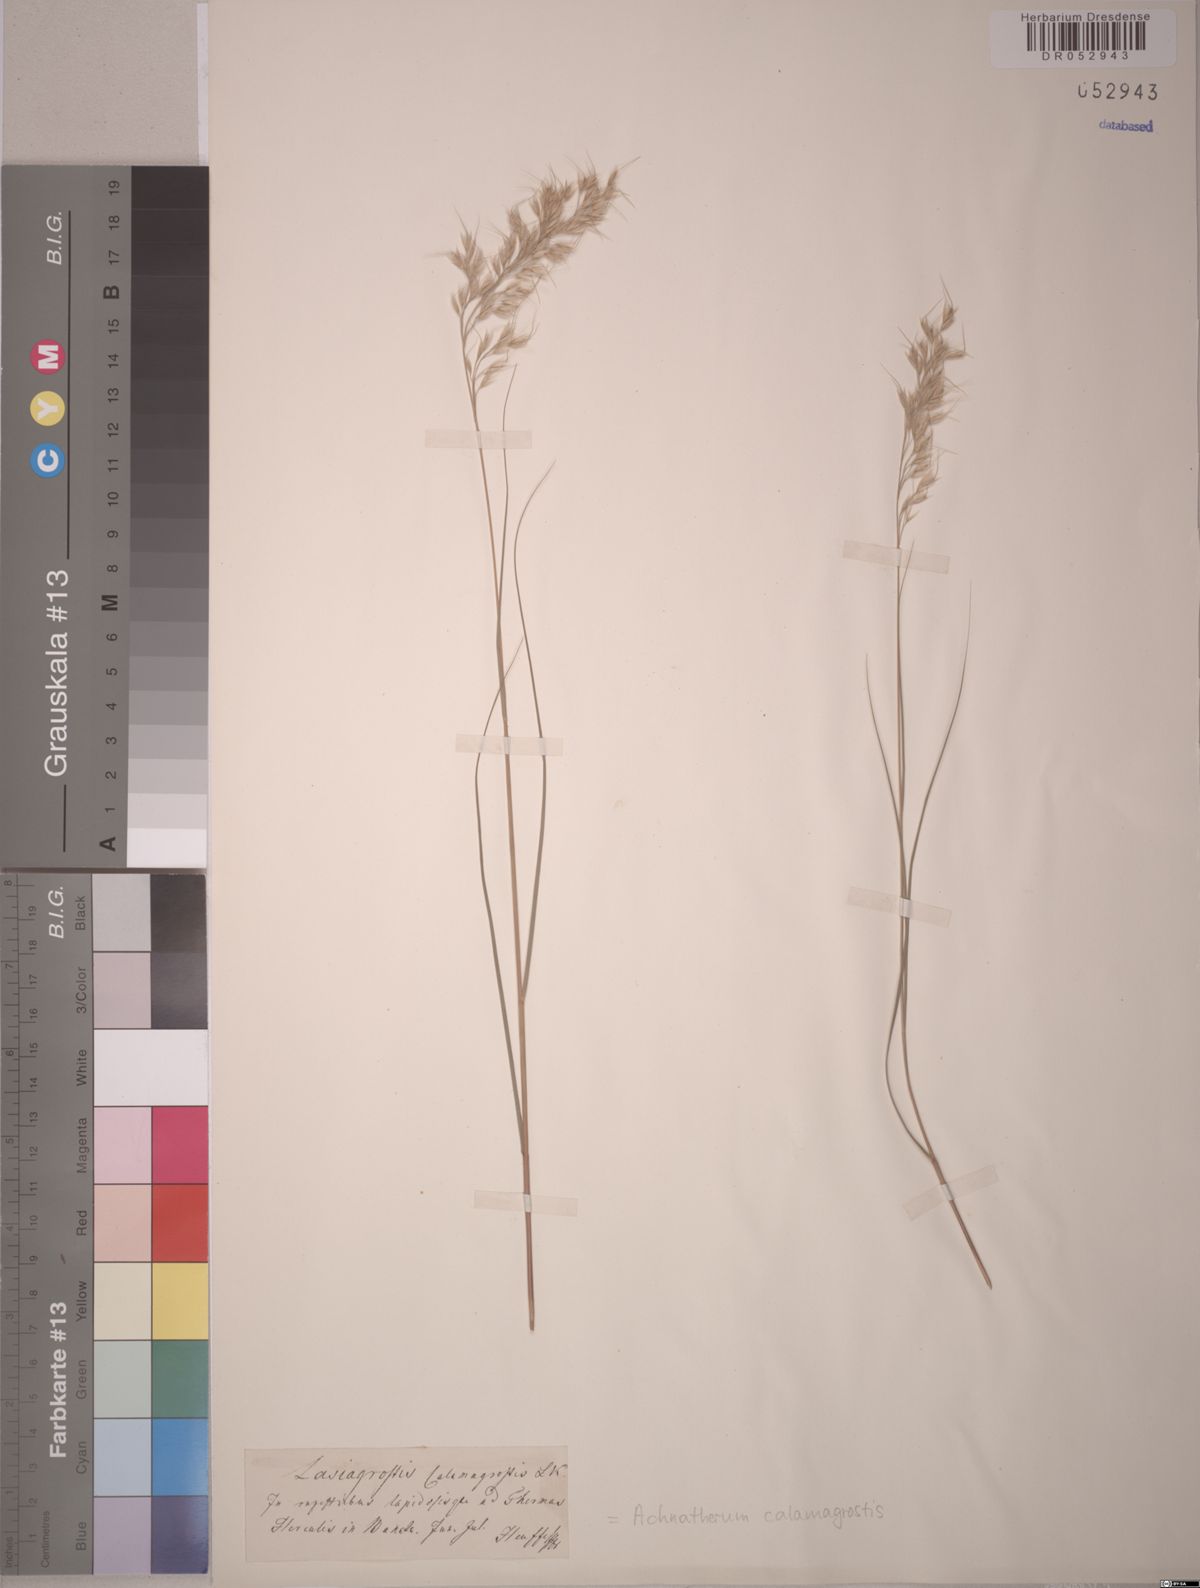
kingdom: Plantae
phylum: Tracheophyta
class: Liliopsida
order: Poales
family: Poaceae
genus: Achnatherum
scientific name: Achnatherum calamagrostis
